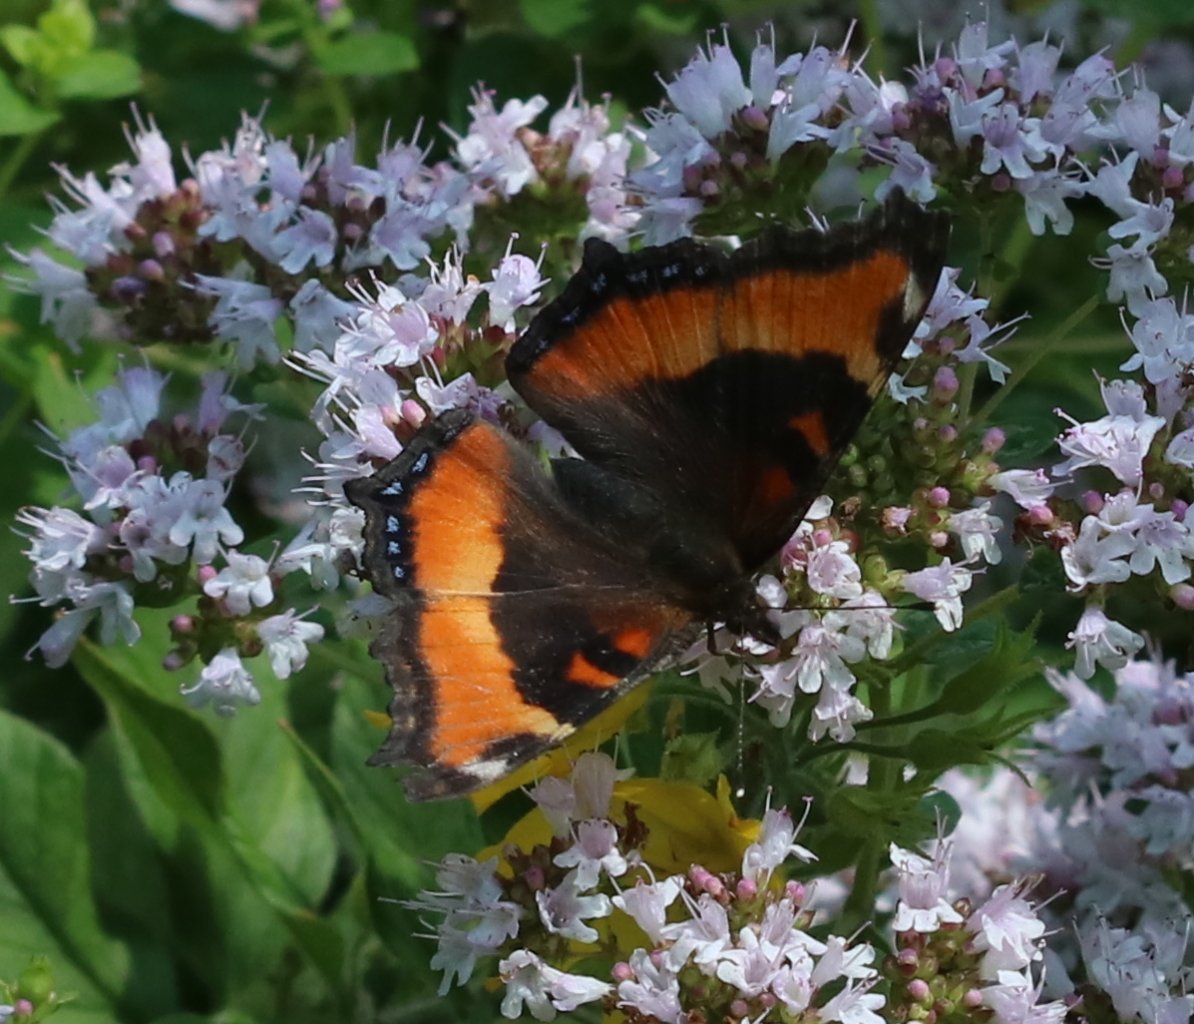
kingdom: Animalia
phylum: Arthropoda
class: Insecta
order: Lepidoptera
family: Nymphalidae
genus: Aglais
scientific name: Aglais milberti
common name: Milbert's Tortoiseshell
